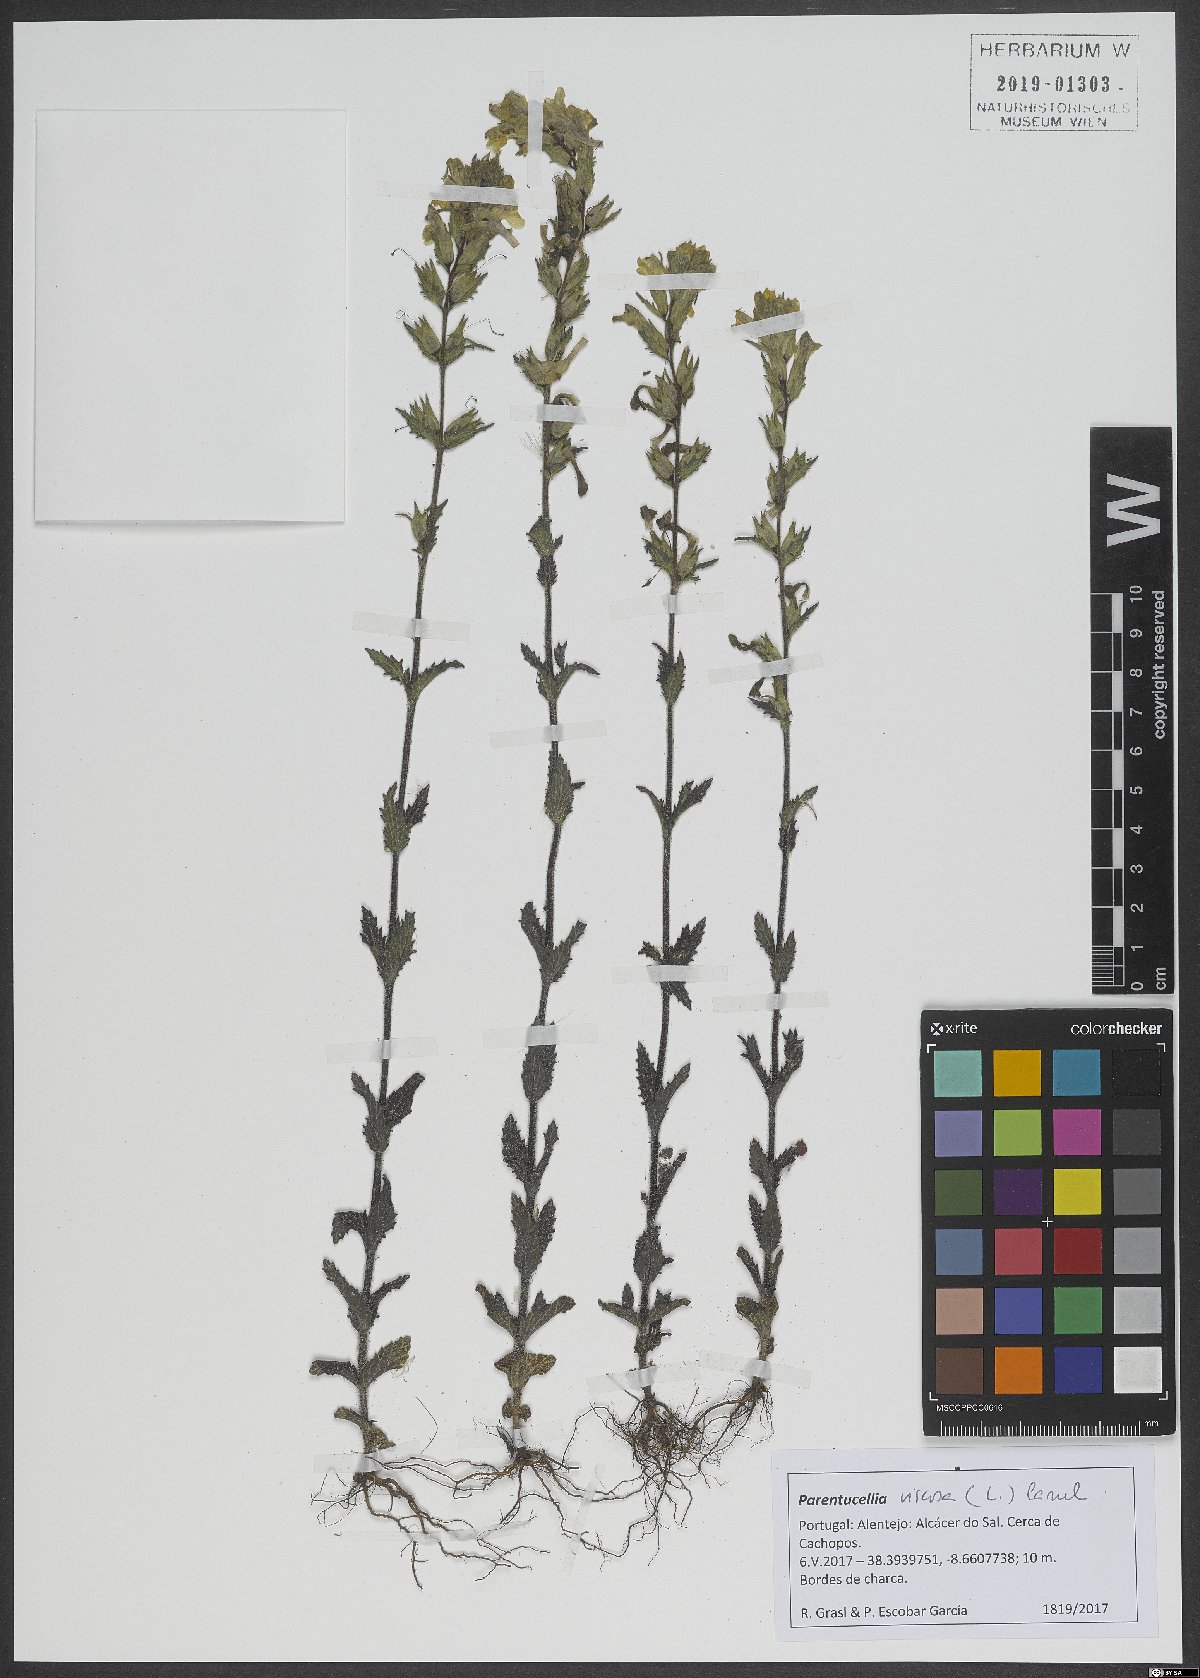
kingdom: Plantae
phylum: Tracheophyta
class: Magnoliopsida
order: Lamiales
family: Orobanchaceae
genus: Bellardia
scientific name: Bellardia viscosa
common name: Sticky parentucellia
